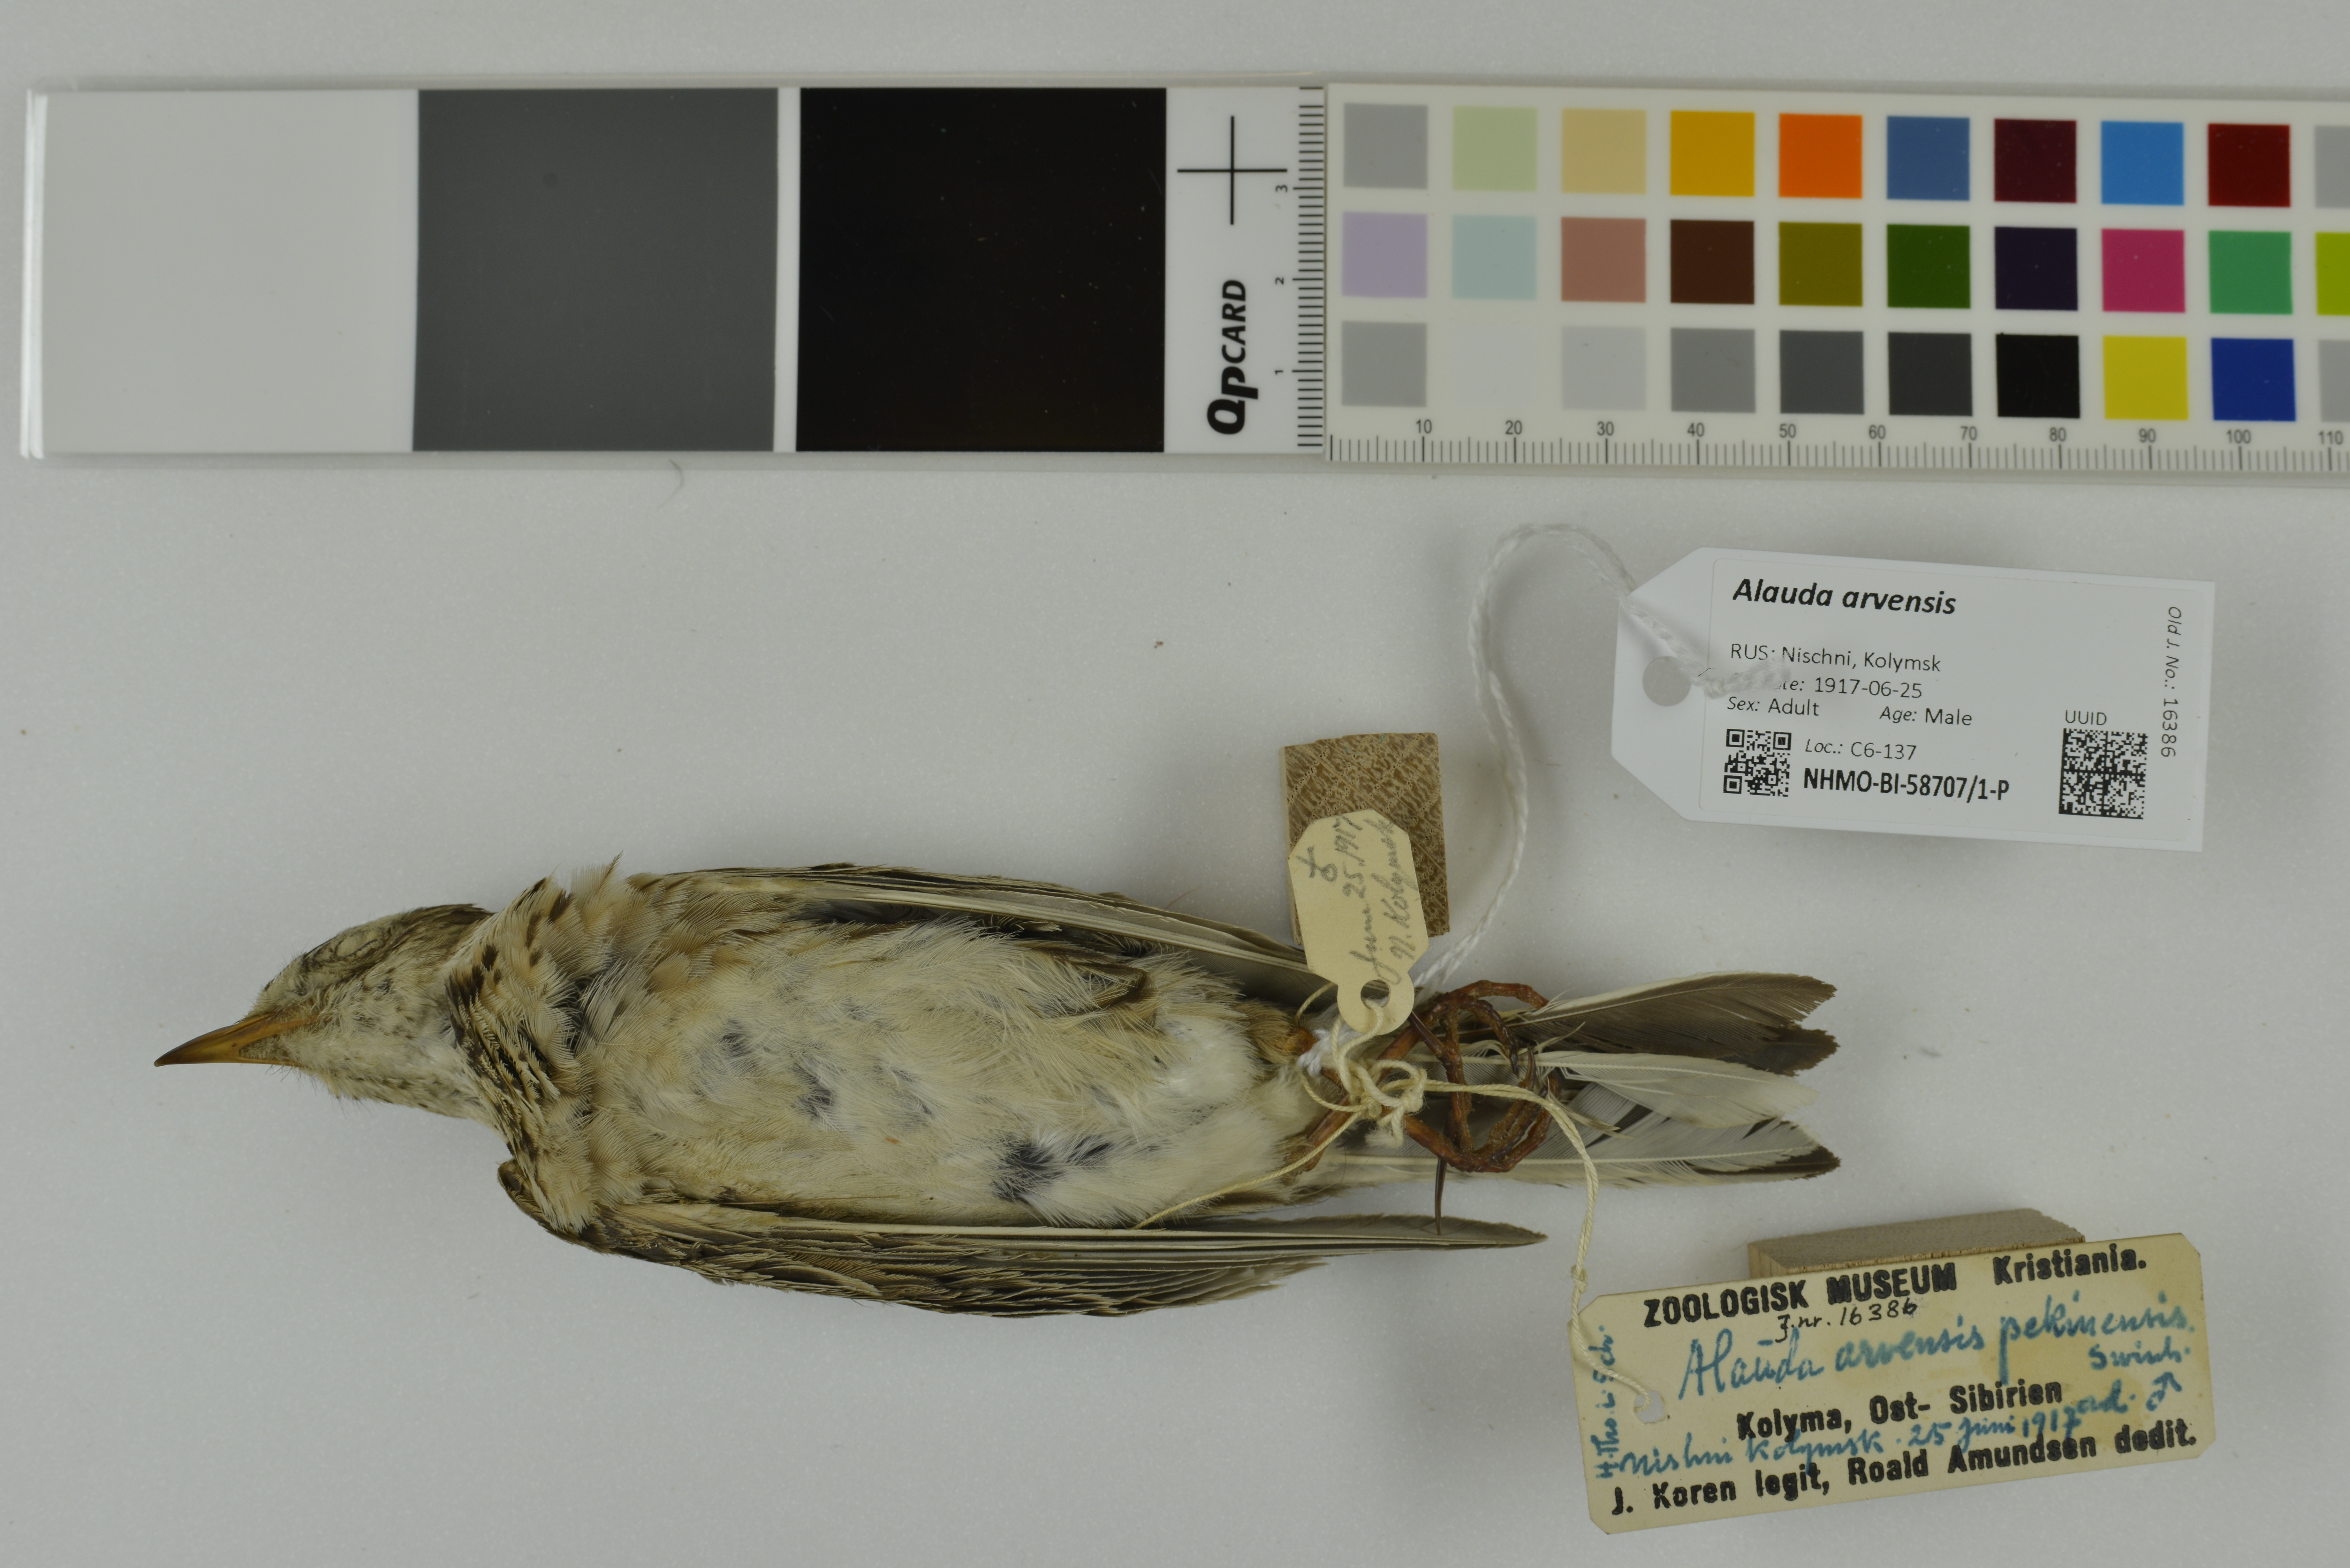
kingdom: Animalia
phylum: Chordata
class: Aves
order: Passeriformes
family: Alaudidae
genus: Alauda
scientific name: Alauda arvensis
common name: Eurasian skylark
